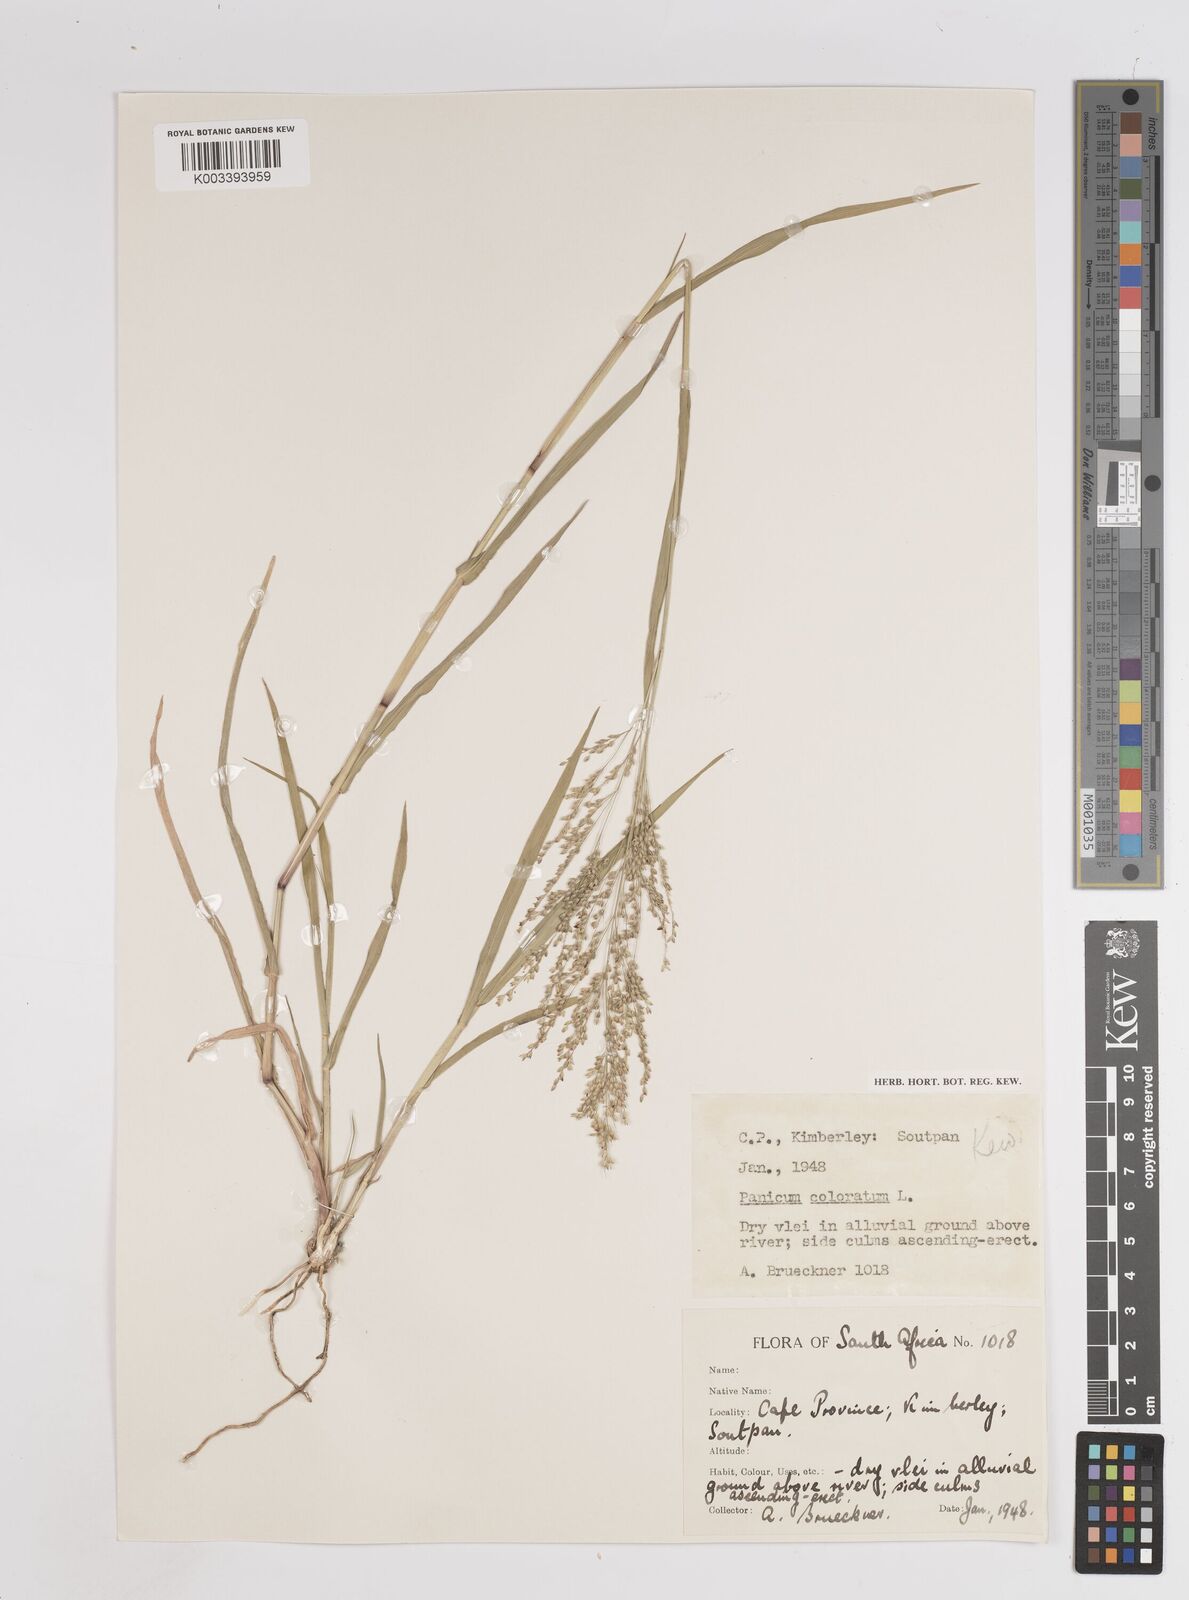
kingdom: Plantae
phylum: Tracheophyta
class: Liliopsida
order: Poales
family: Poaceae
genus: Panicum
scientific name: Panicum coloratum
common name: Kleingrass
